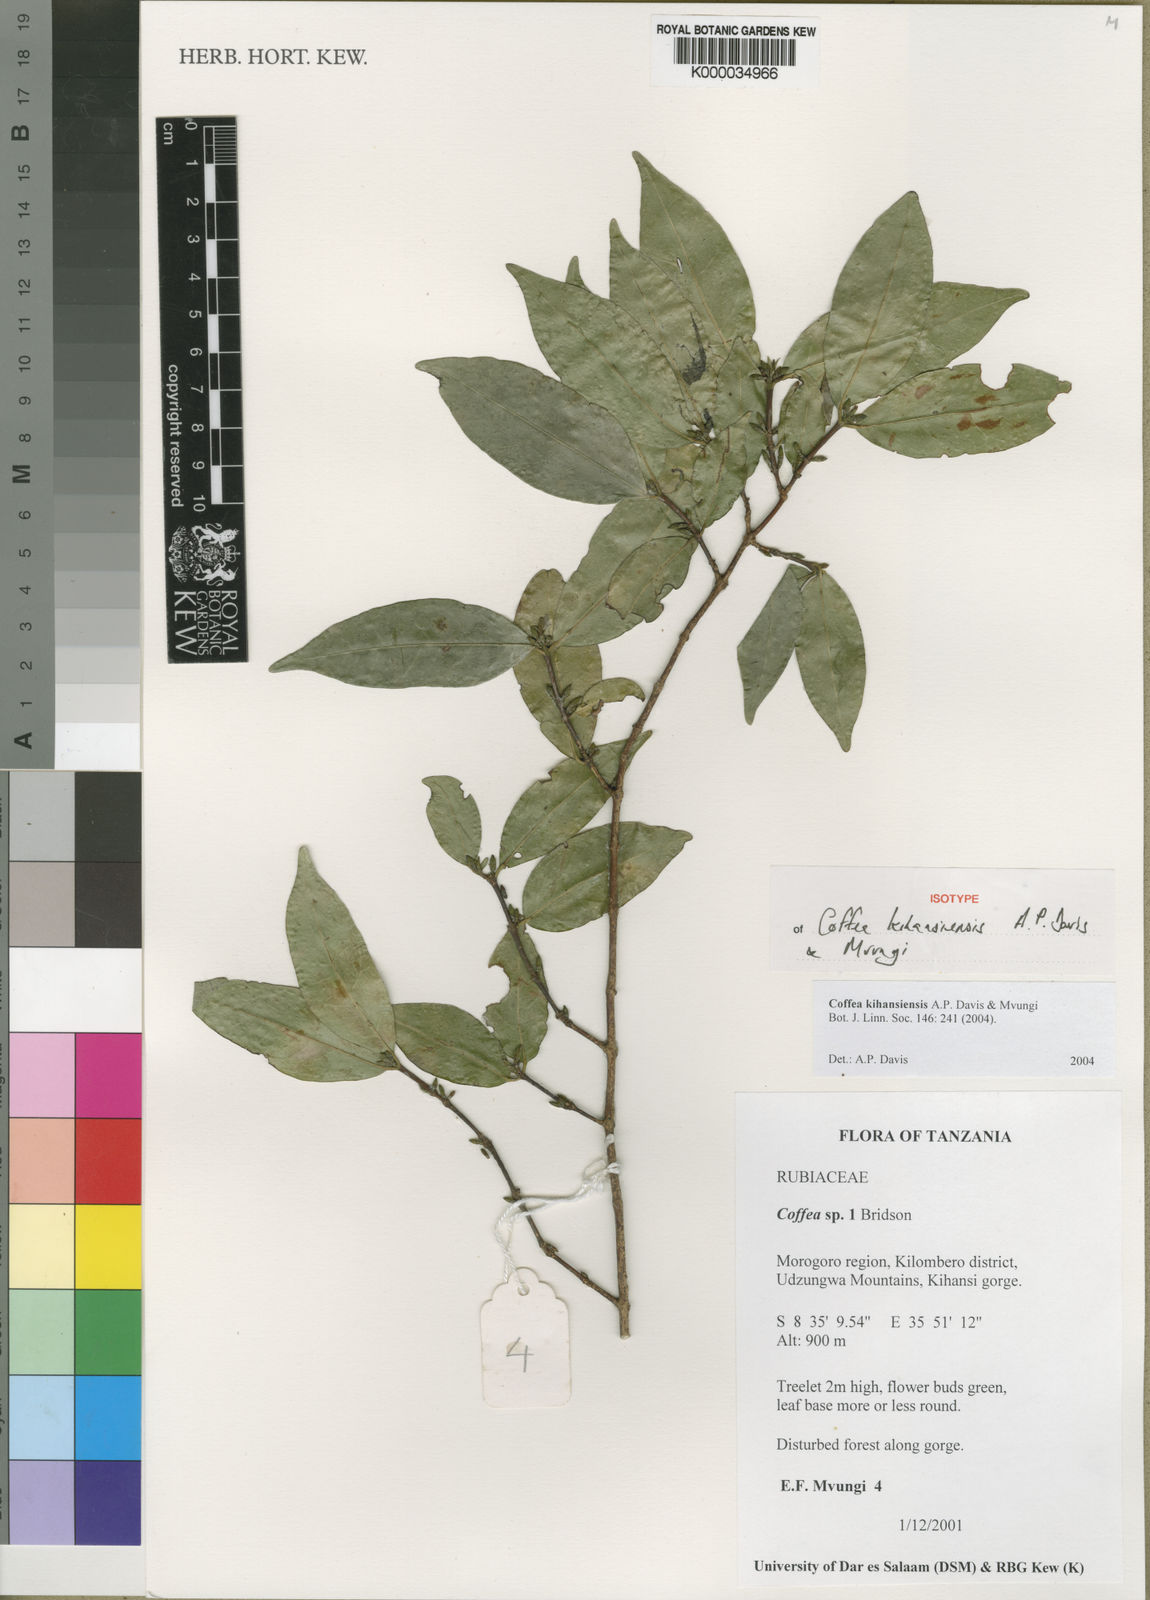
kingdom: Plantae
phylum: Tracheophyta
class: Magnoliopsida
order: Gentianales
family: Rubiaceae
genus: Coffea
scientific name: Coffea kihansiensis
